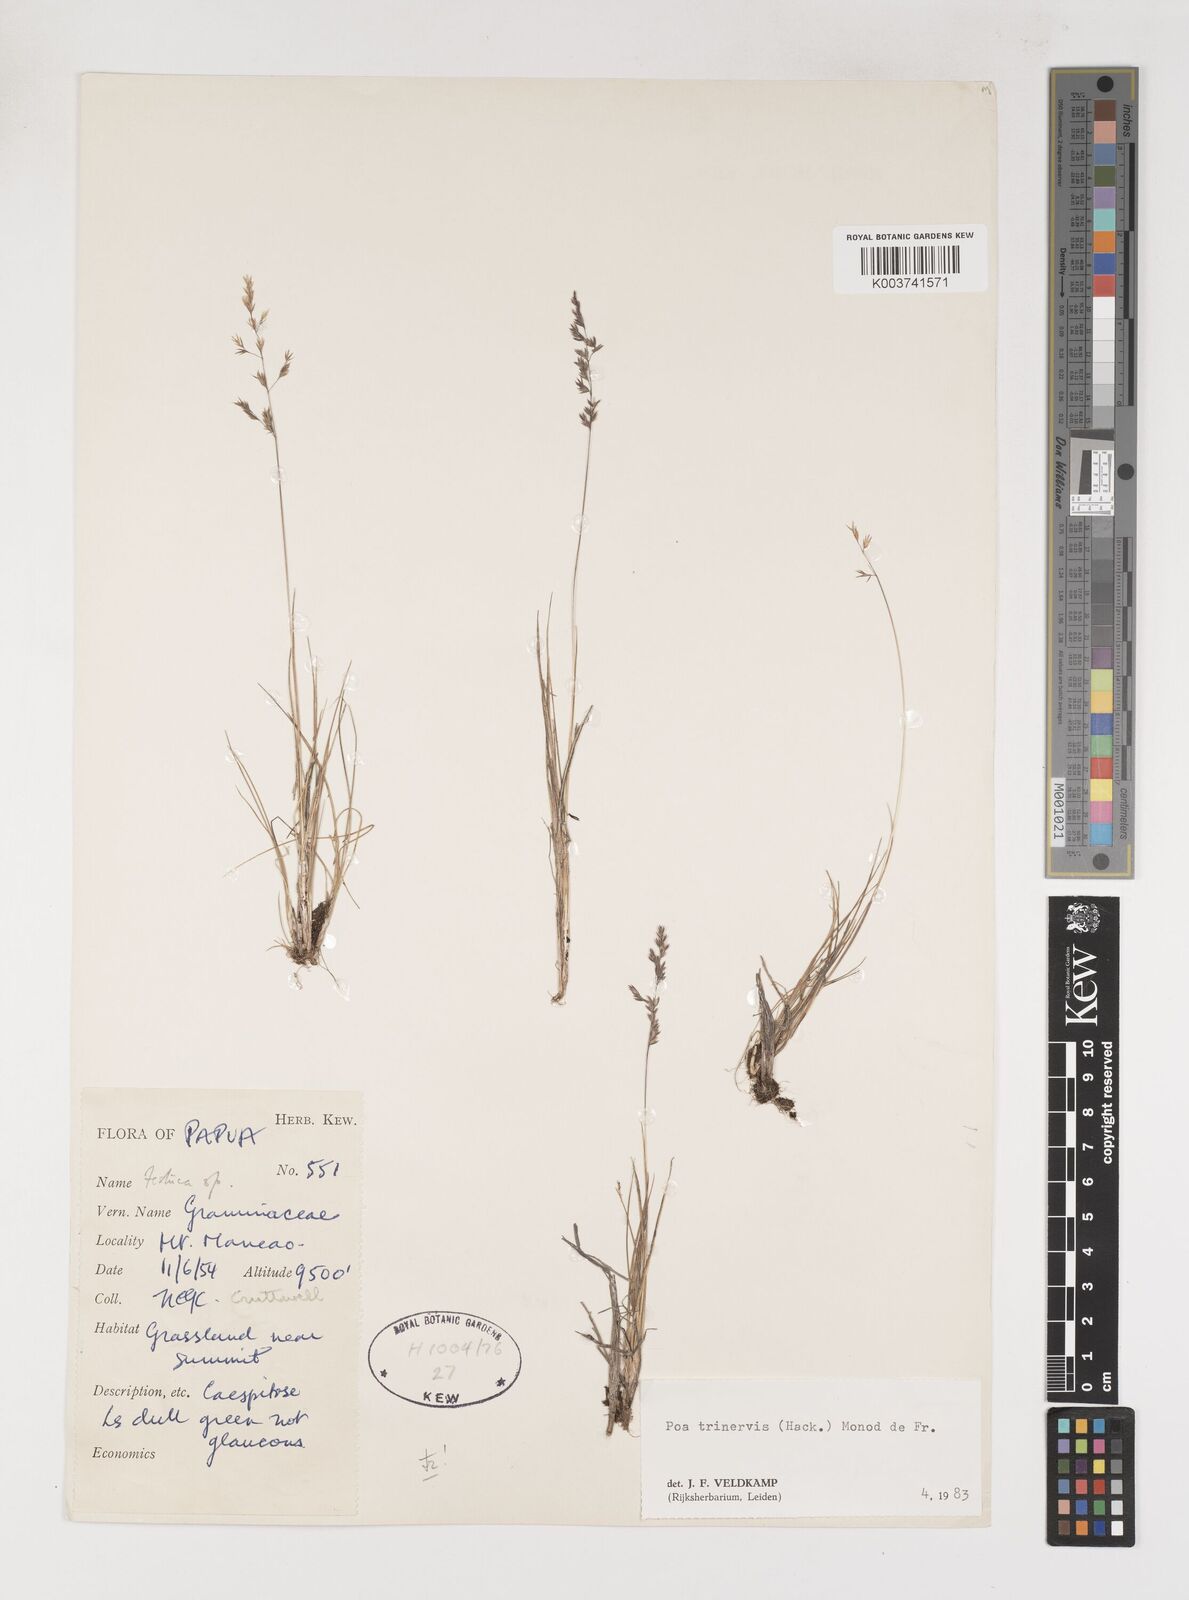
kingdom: Plantae
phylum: Tracheophyta
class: Liliopsida
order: Poales
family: Poaceae
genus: Poa
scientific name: Poa trinervis
